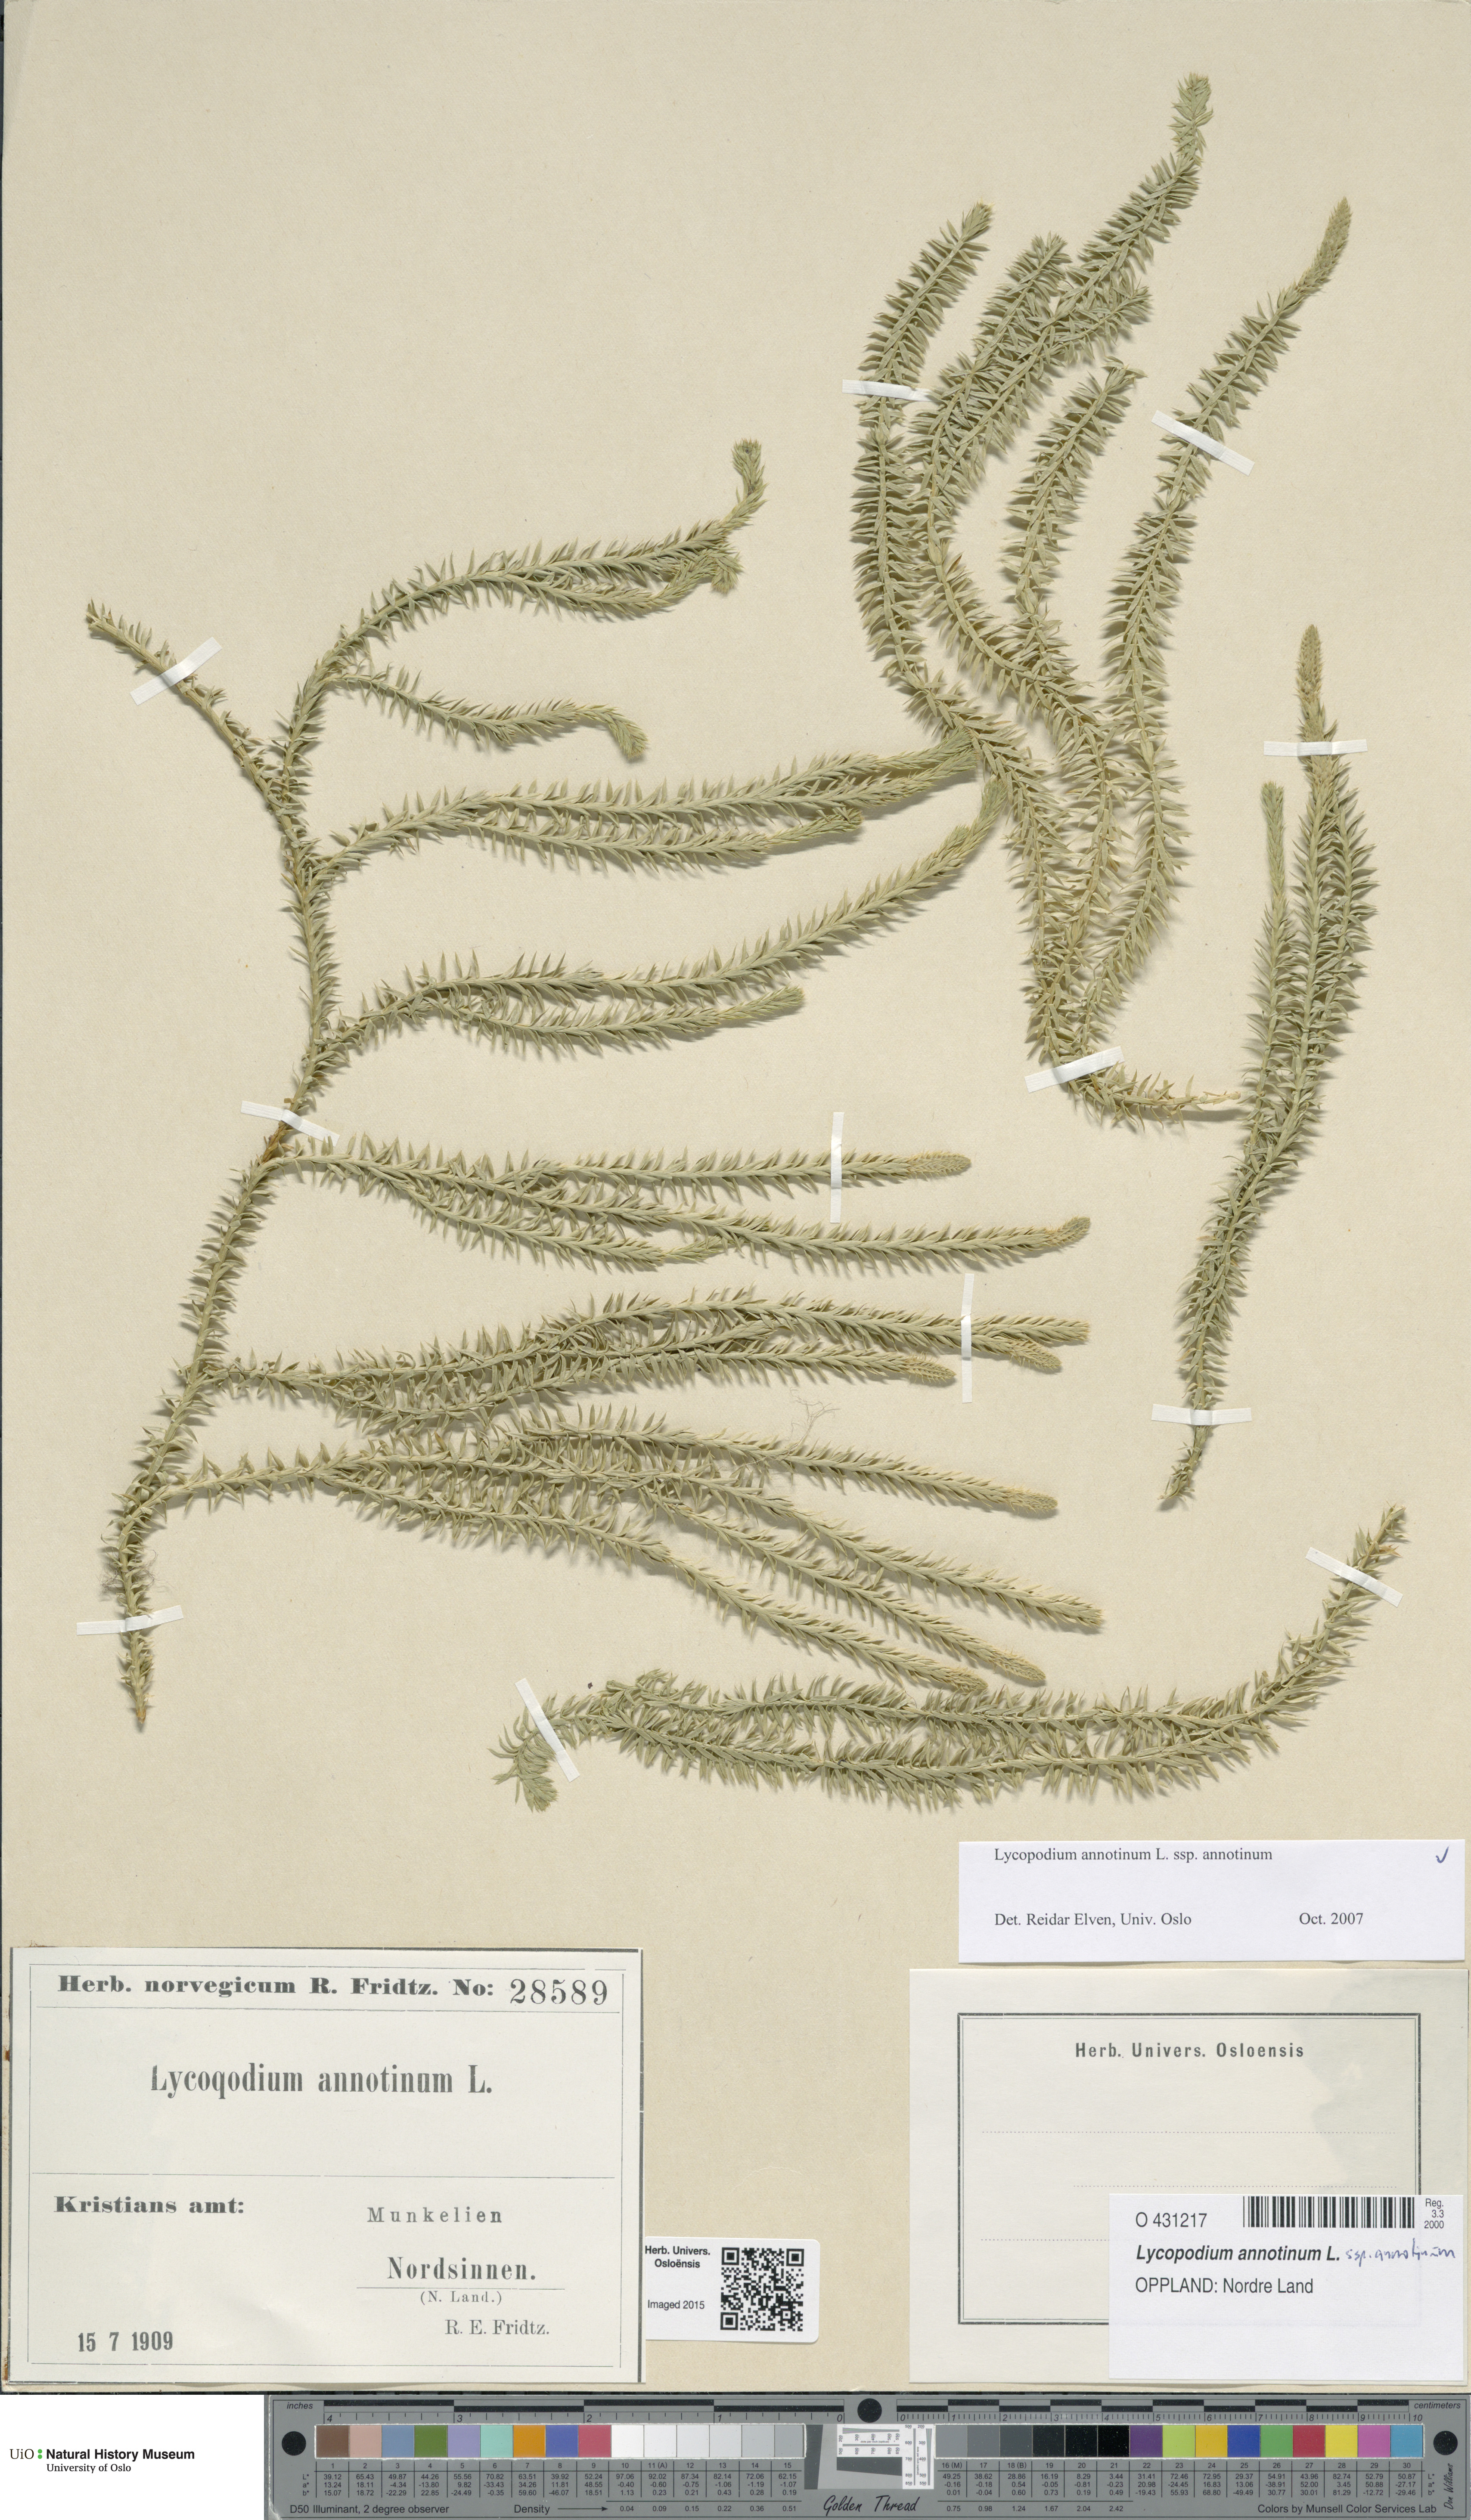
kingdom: Plantae
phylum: Tracheophyta
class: Lycopodiopsida
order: Lycopodiales
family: Lycopodiaceae
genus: Spinulum
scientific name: Spinulum annotinum
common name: Interrupted club-moss
